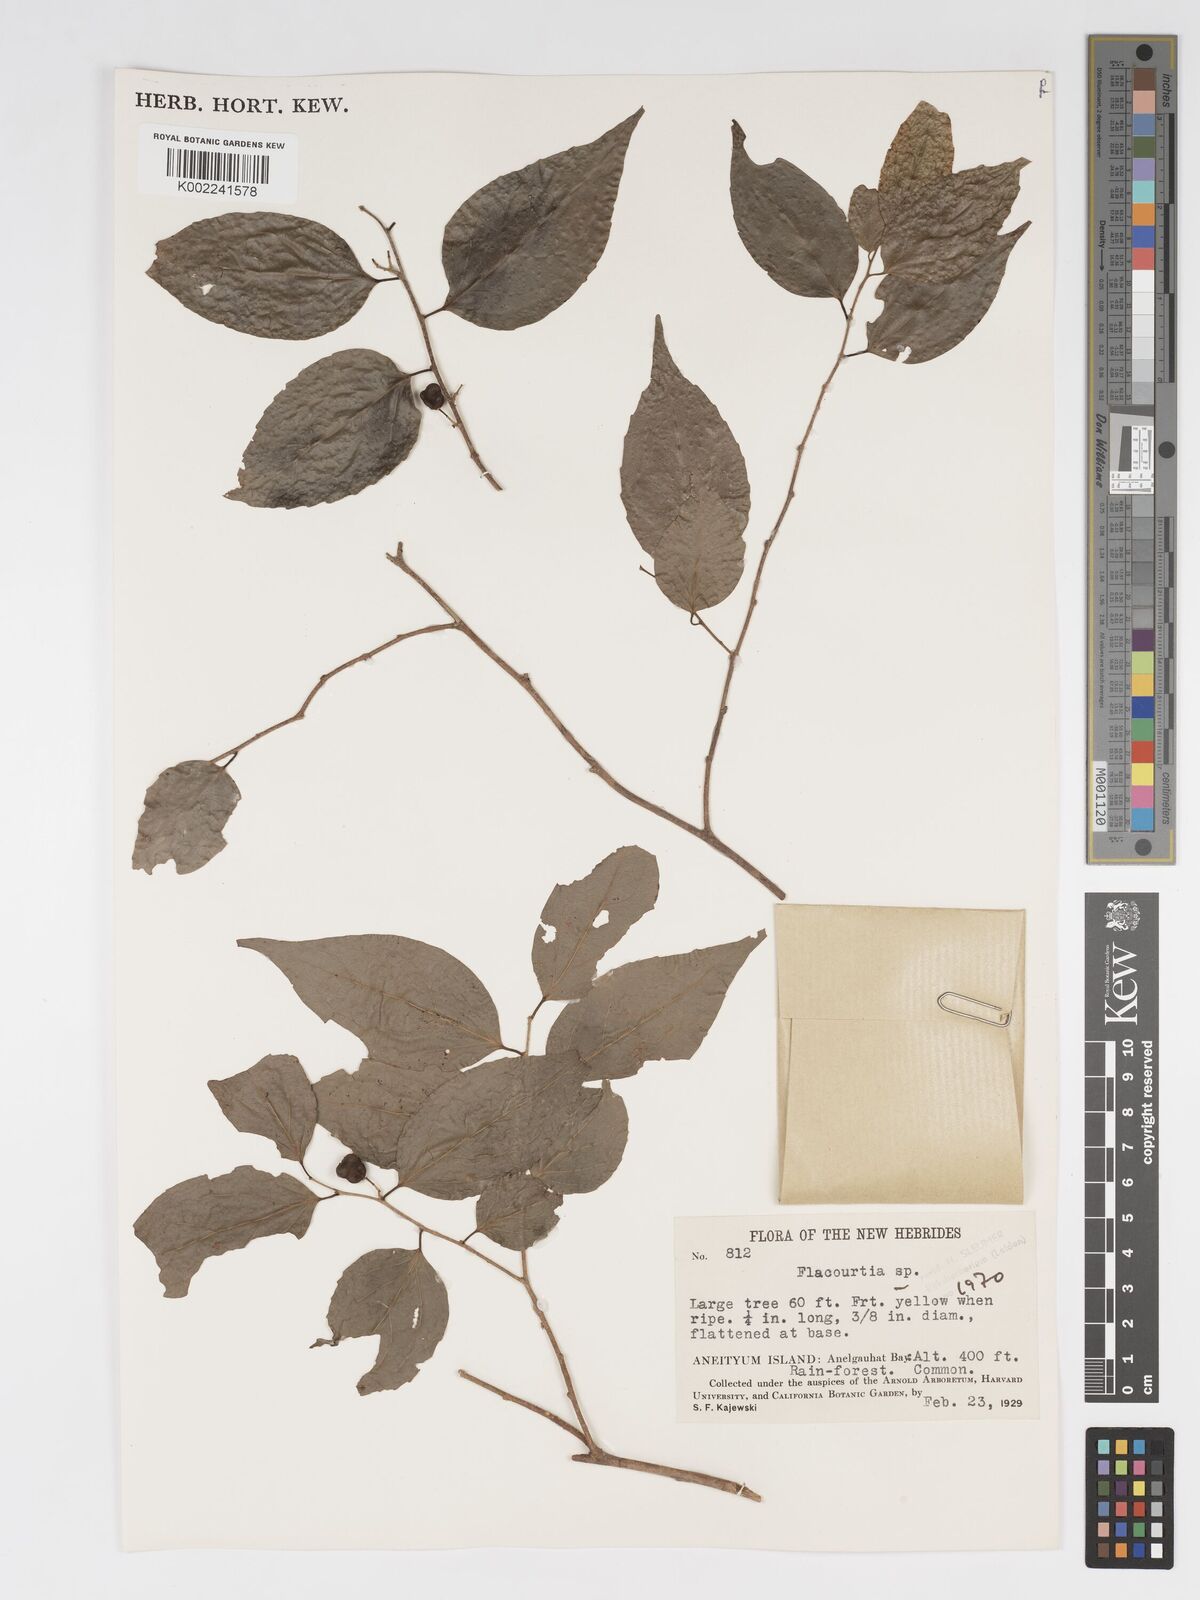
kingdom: Plantae
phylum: Tracheophyta
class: Magnoliopsida
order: Malpighiales
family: Salicaceae
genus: Flacourtia
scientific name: Flacourtia
